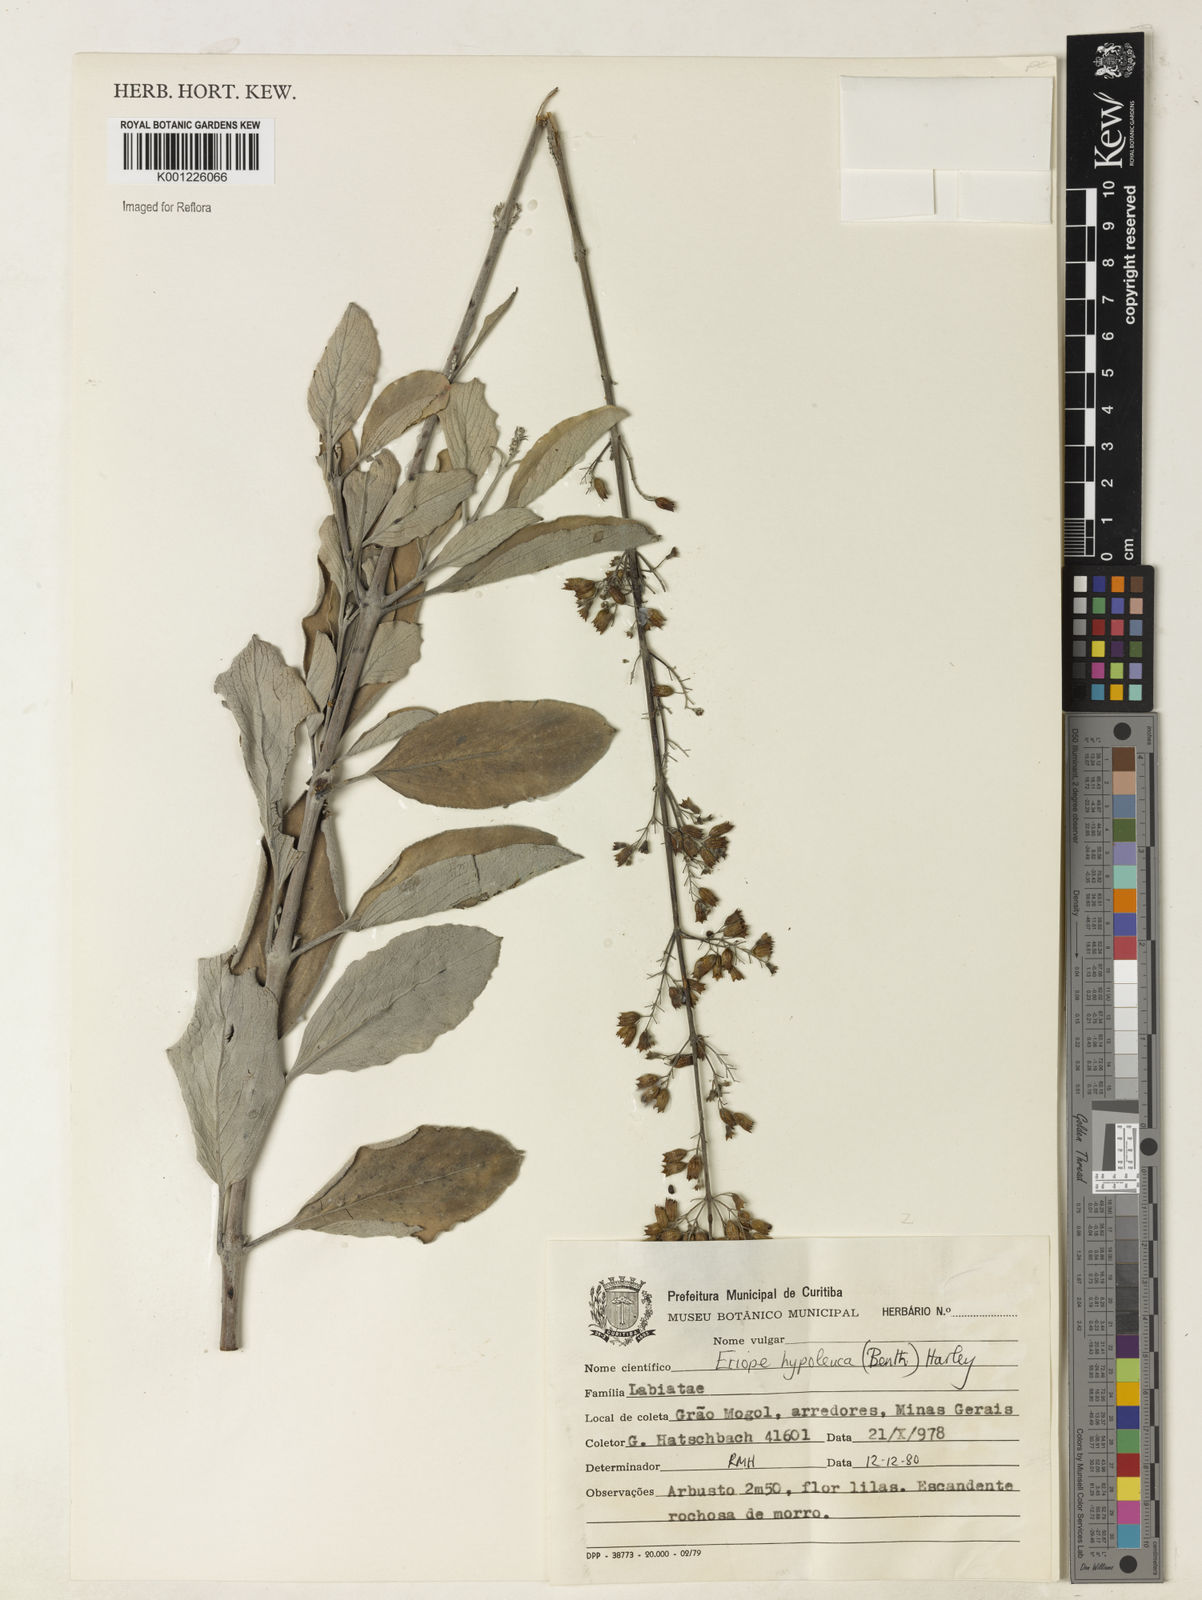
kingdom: Plantae
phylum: Tracheophyta
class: Magnoliopsida
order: Lamiales
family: Lamiaceae
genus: Eriope
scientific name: Eriope hypoleuca
